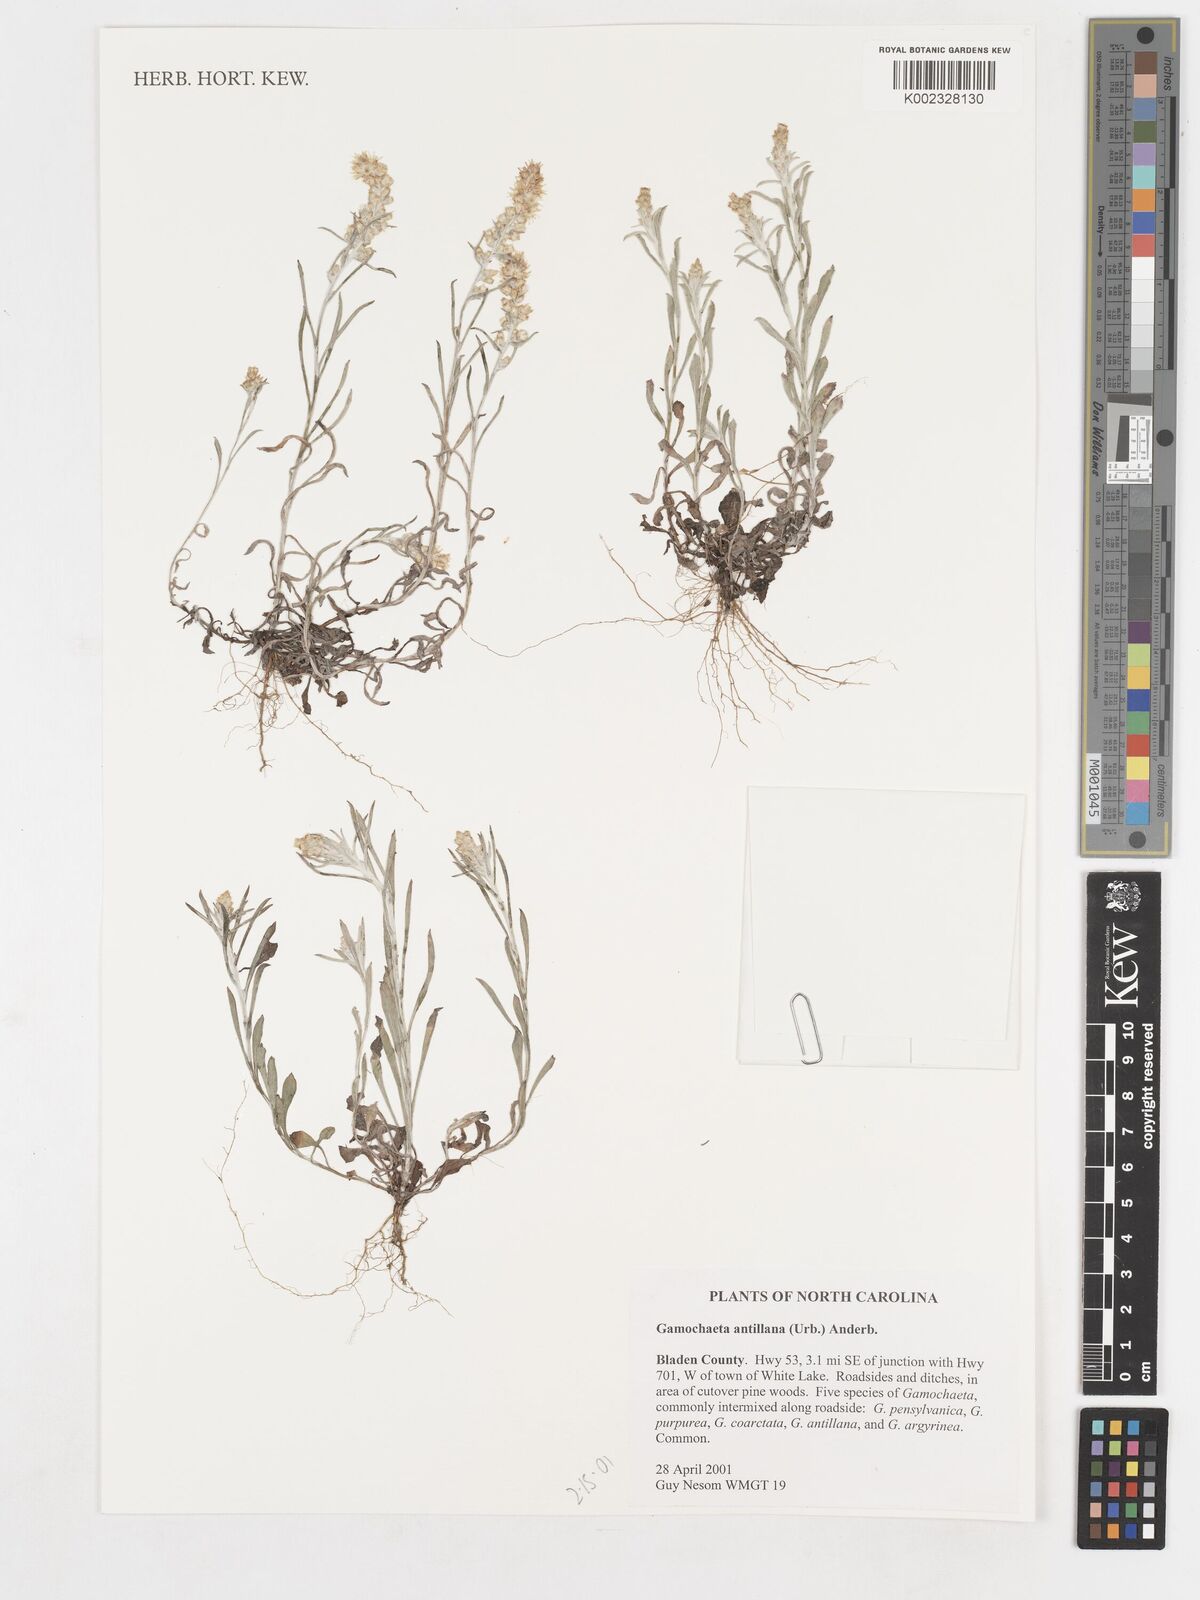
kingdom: Plantae
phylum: Tracheophyta
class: Magnoliopsida
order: Asterales
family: Asteraceae
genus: Gamochaeta
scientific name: Gamochaeta antillana
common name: Delicate everlasting
